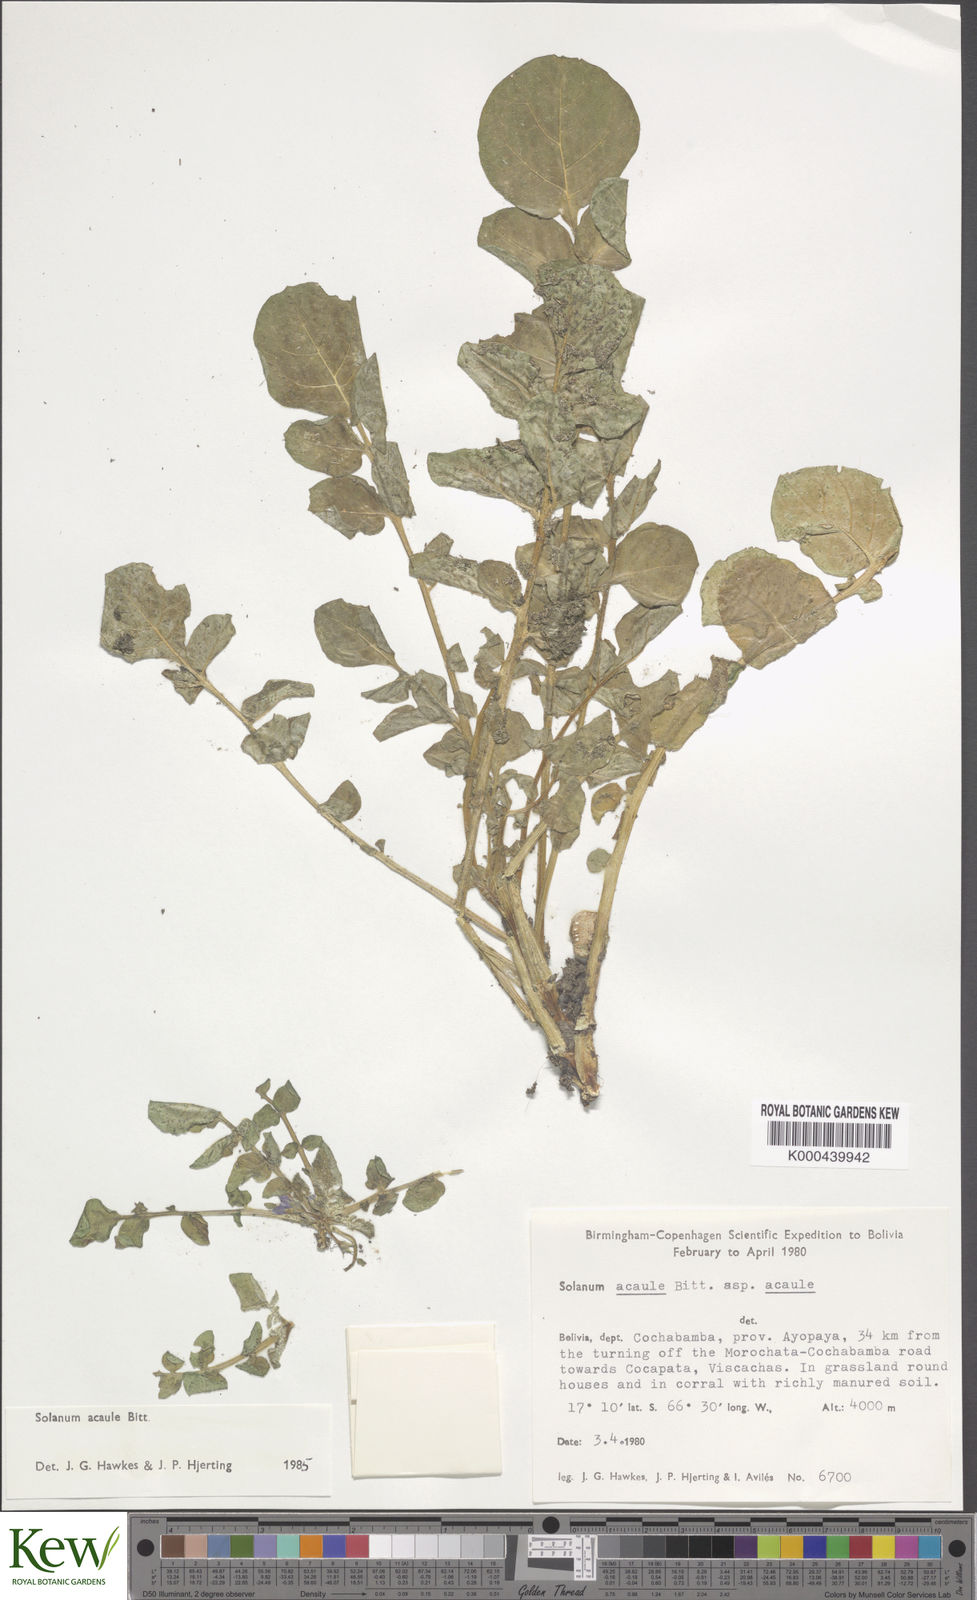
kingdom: Plantae
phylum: Tracheophyta
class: Magnoliopsida
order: Solanales
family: Solanaceae
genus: Solanum
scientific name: Solanum acaule
